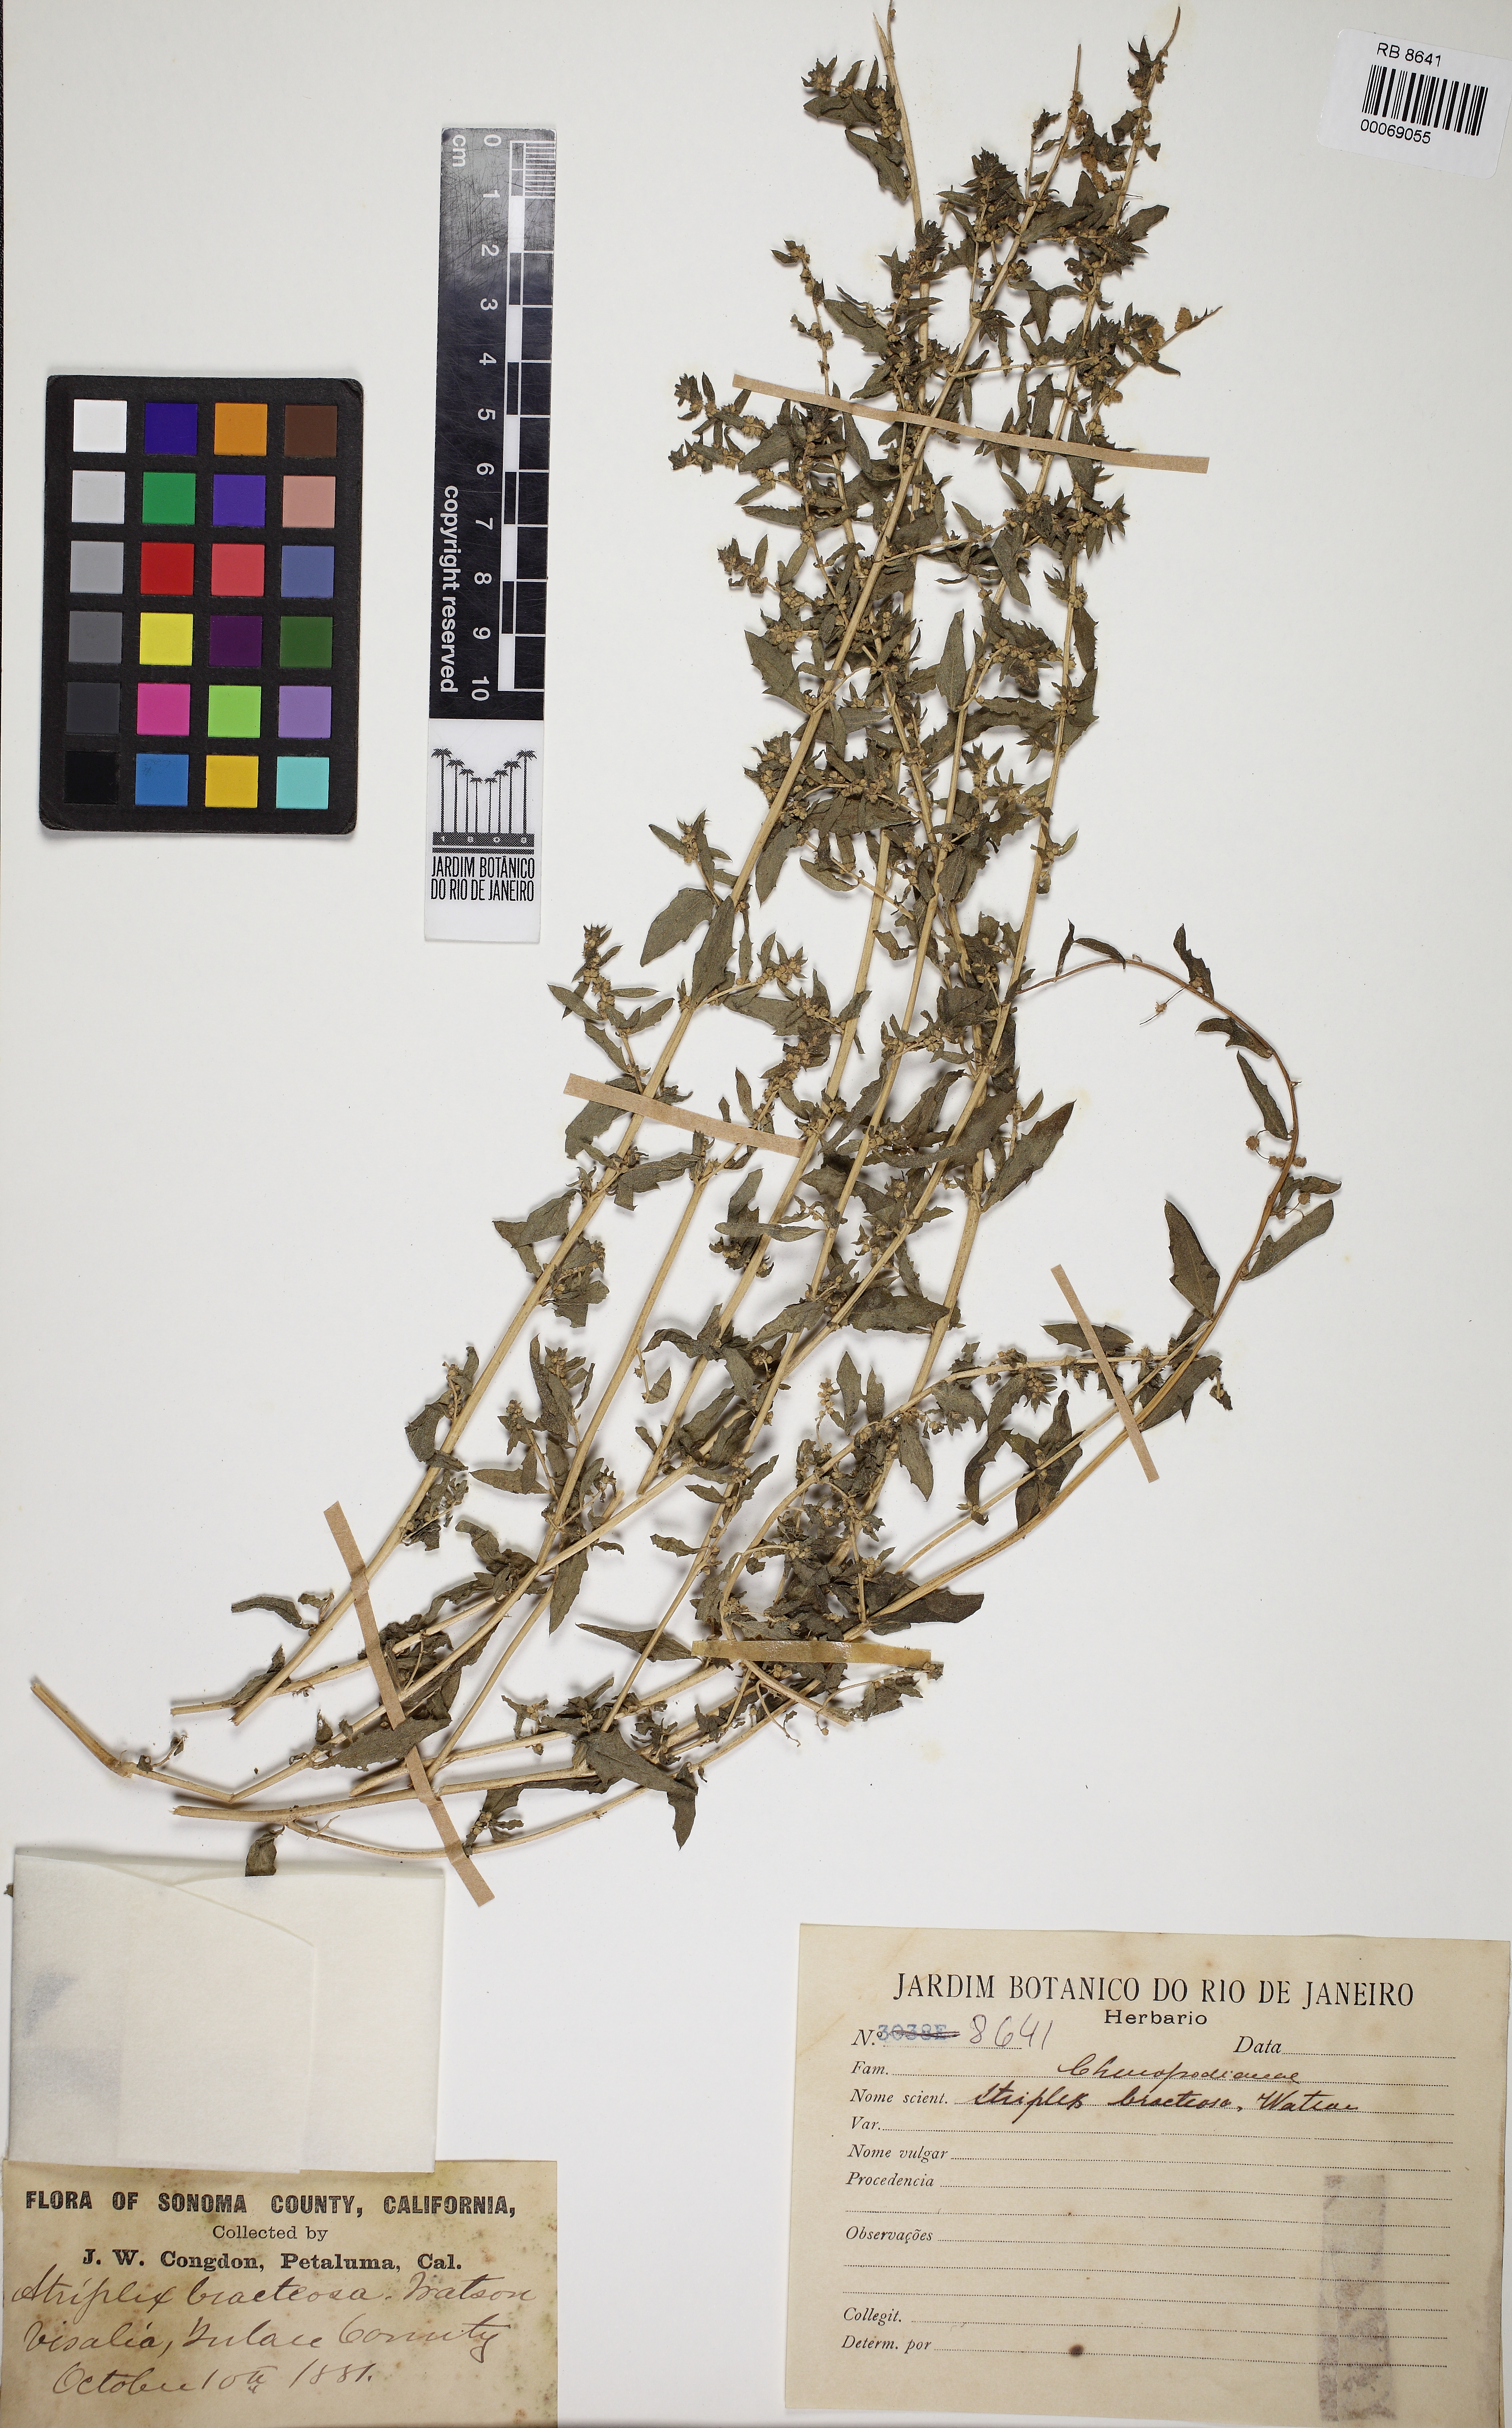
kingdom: Plantae
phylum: Tracheophyta
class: Magnoliopsida
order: Caryophyllales
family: Amaranthaceae
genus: Atriplex
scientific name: Atriplex serenana
